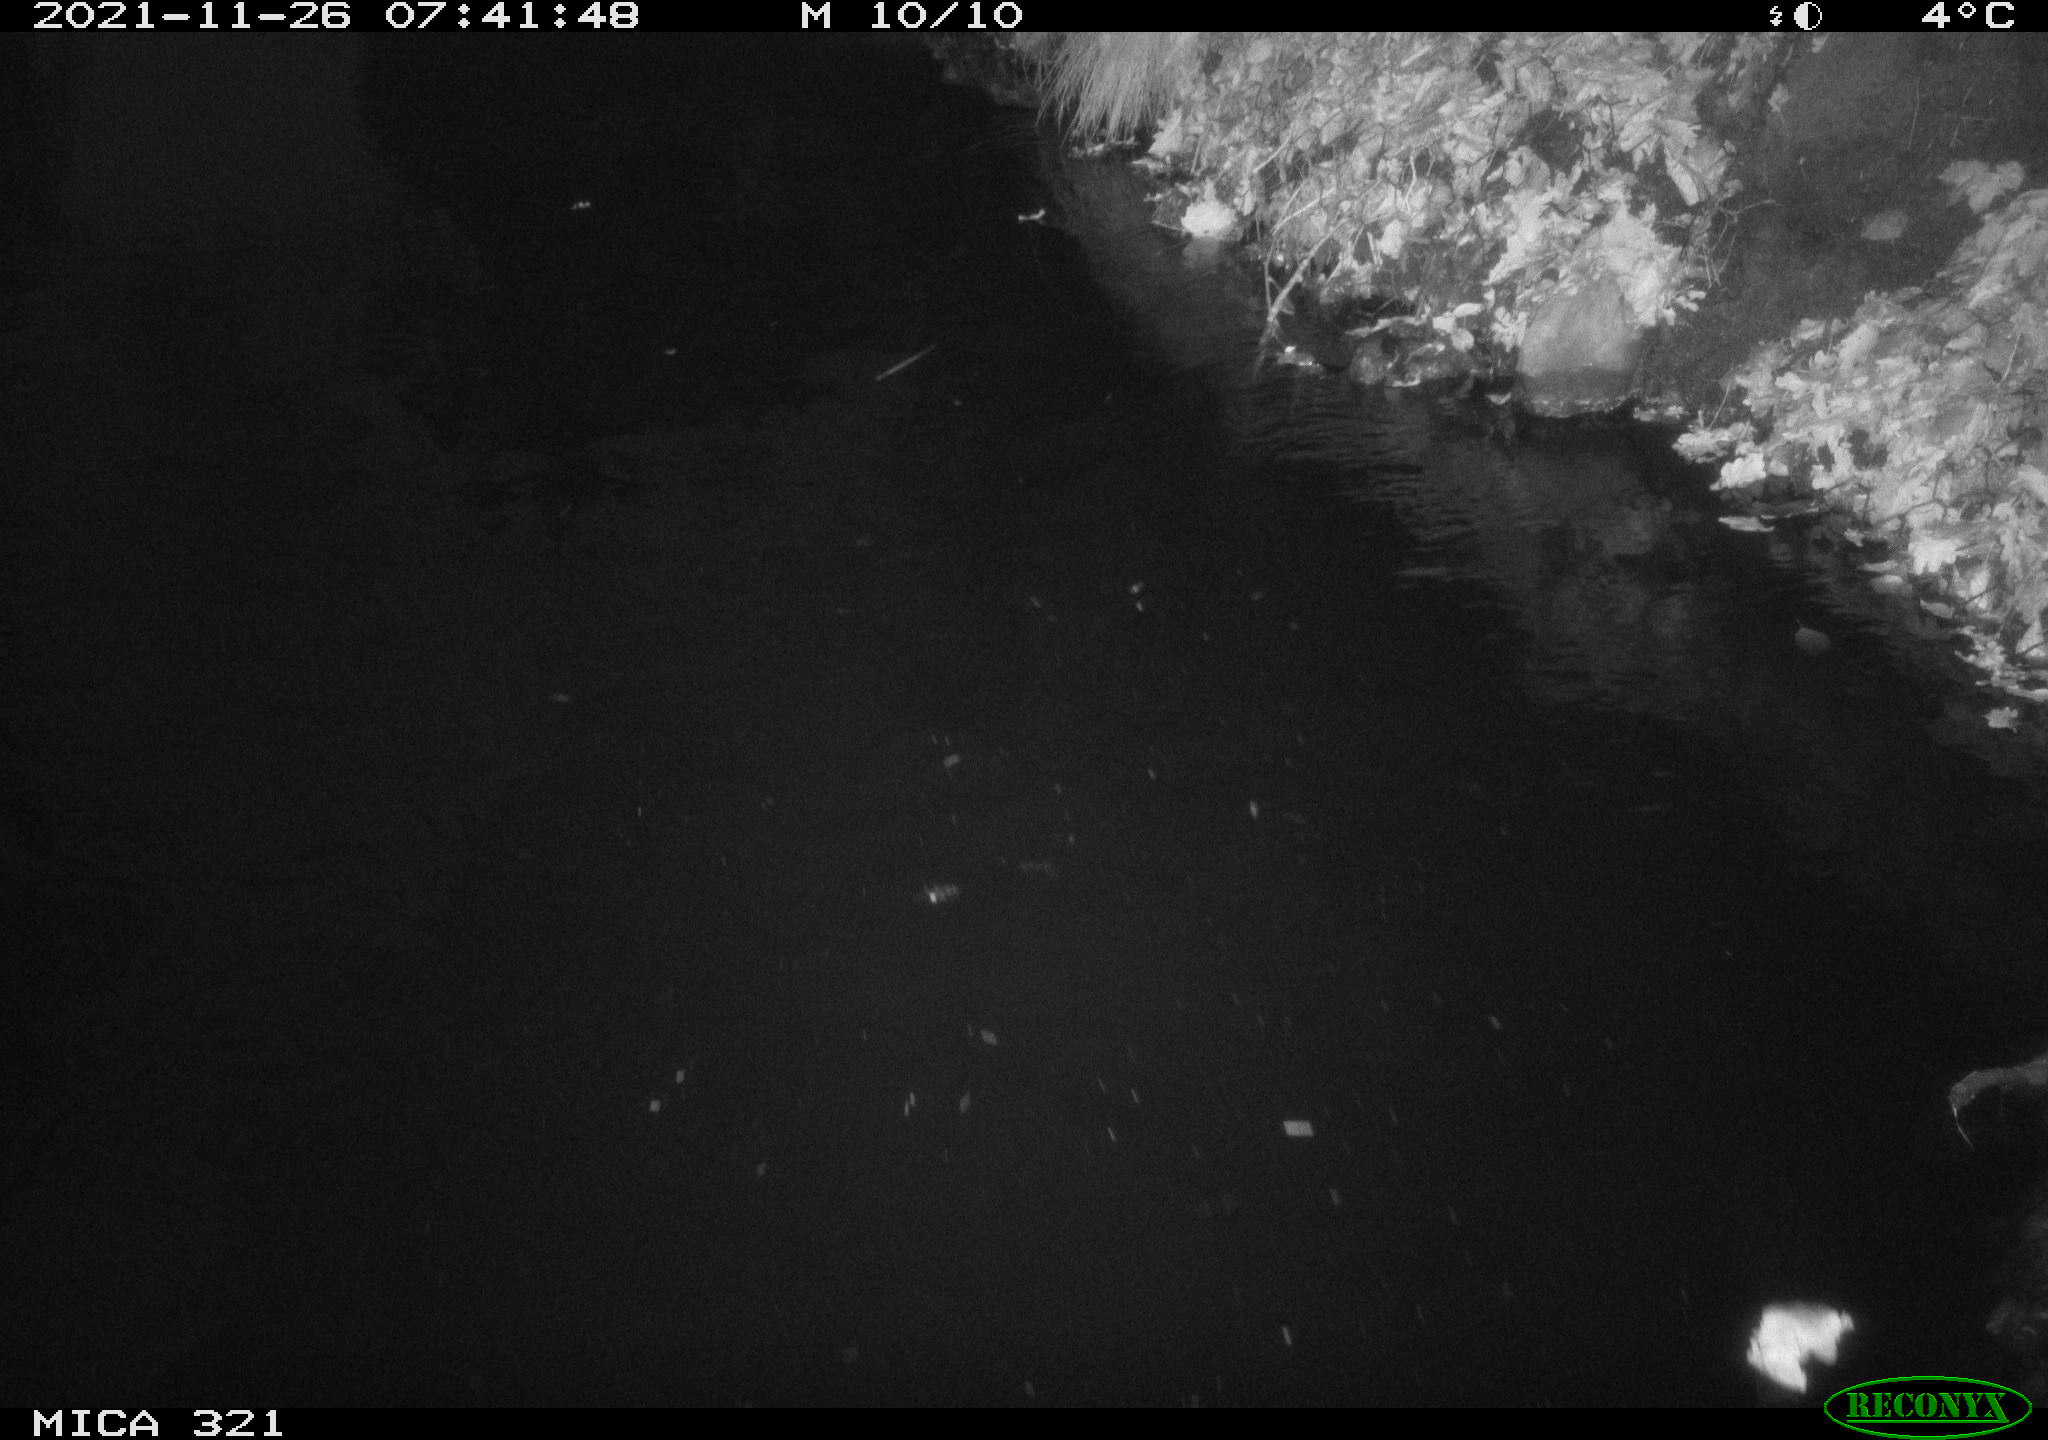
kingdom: Animalia
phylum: Chordata
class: Aves
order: Anseriformes
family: Anatidae
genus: Anas
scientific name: Anas platyrhynchos
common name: Mallard
